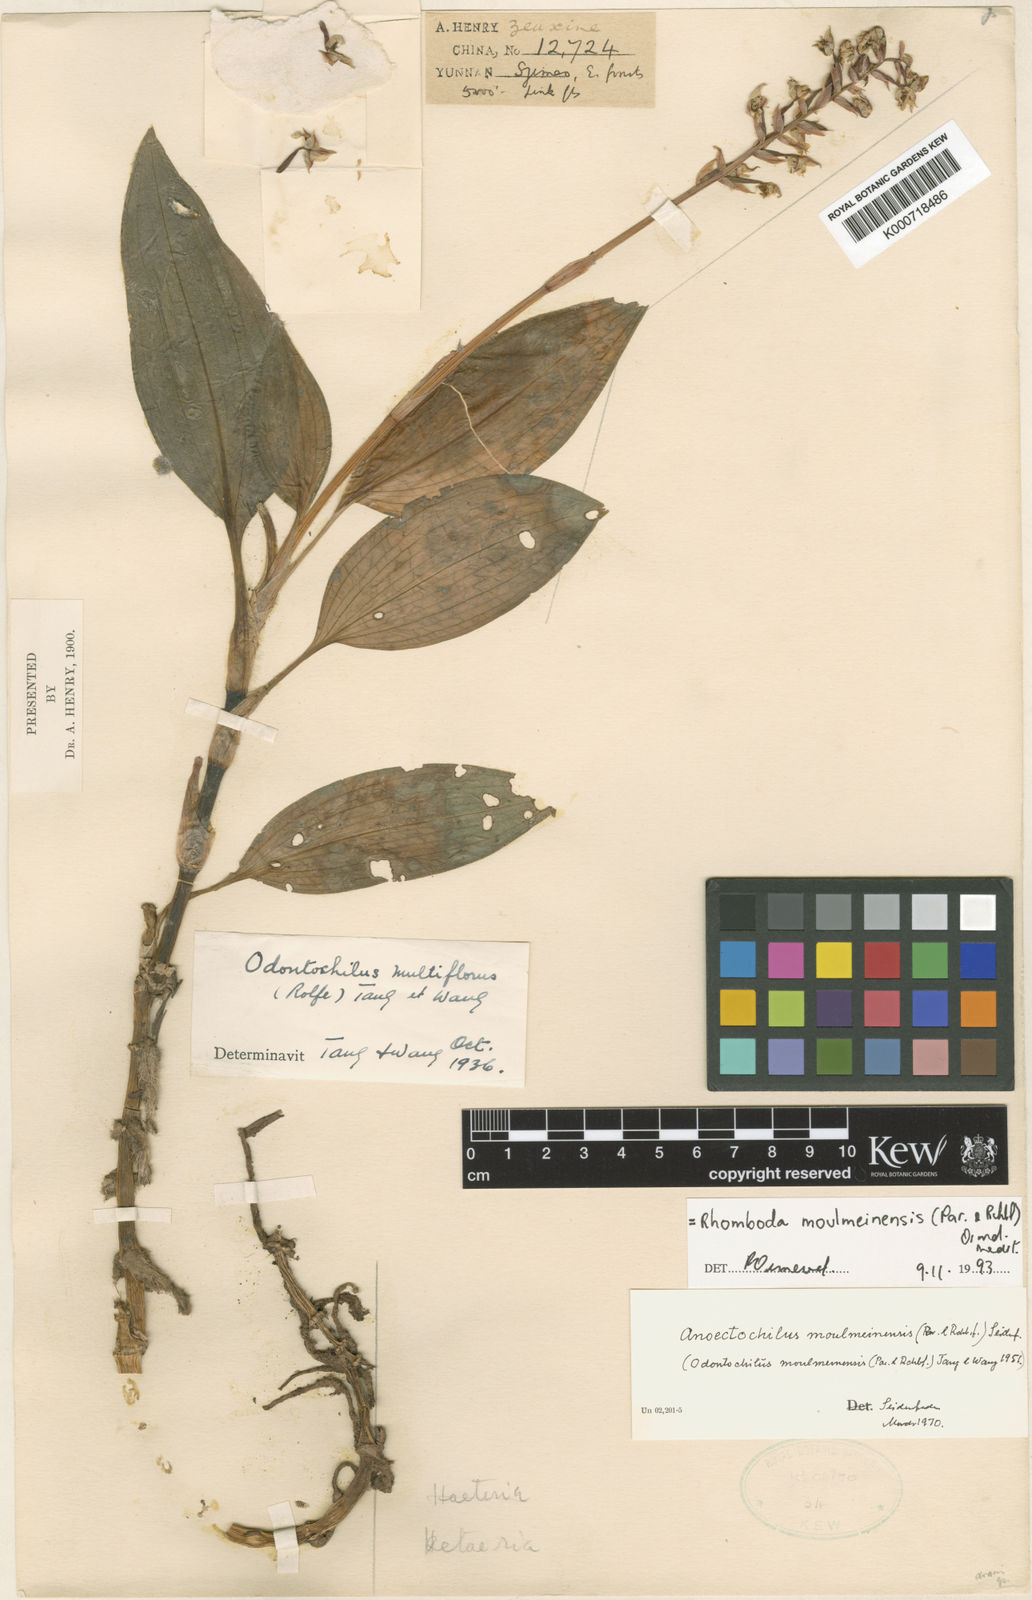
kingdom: Plantae
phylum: Tracheophyta
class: Liliopsida
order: Asparagales
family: Orchidaceae
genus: Rhomboda
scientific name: Rhomboda moulmeinensis
